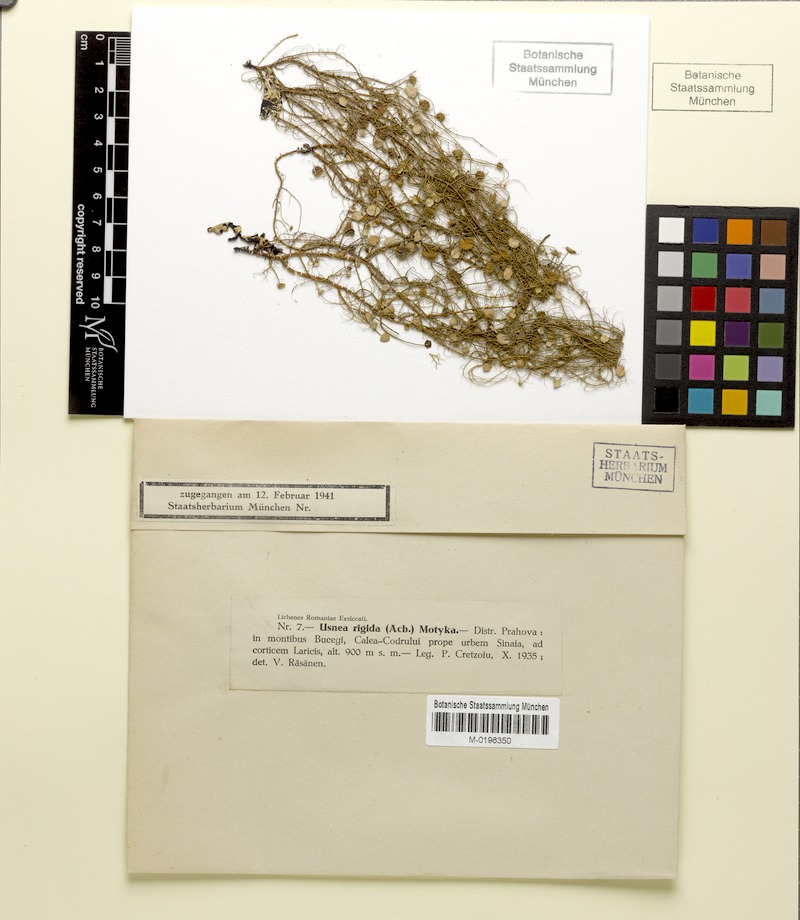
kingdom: Fungi
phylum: Ascomycota
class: Lecanoromycetes
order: Lecanorales
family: Parmeliaceae
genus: Usnea
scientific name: Usnea quasirigida
